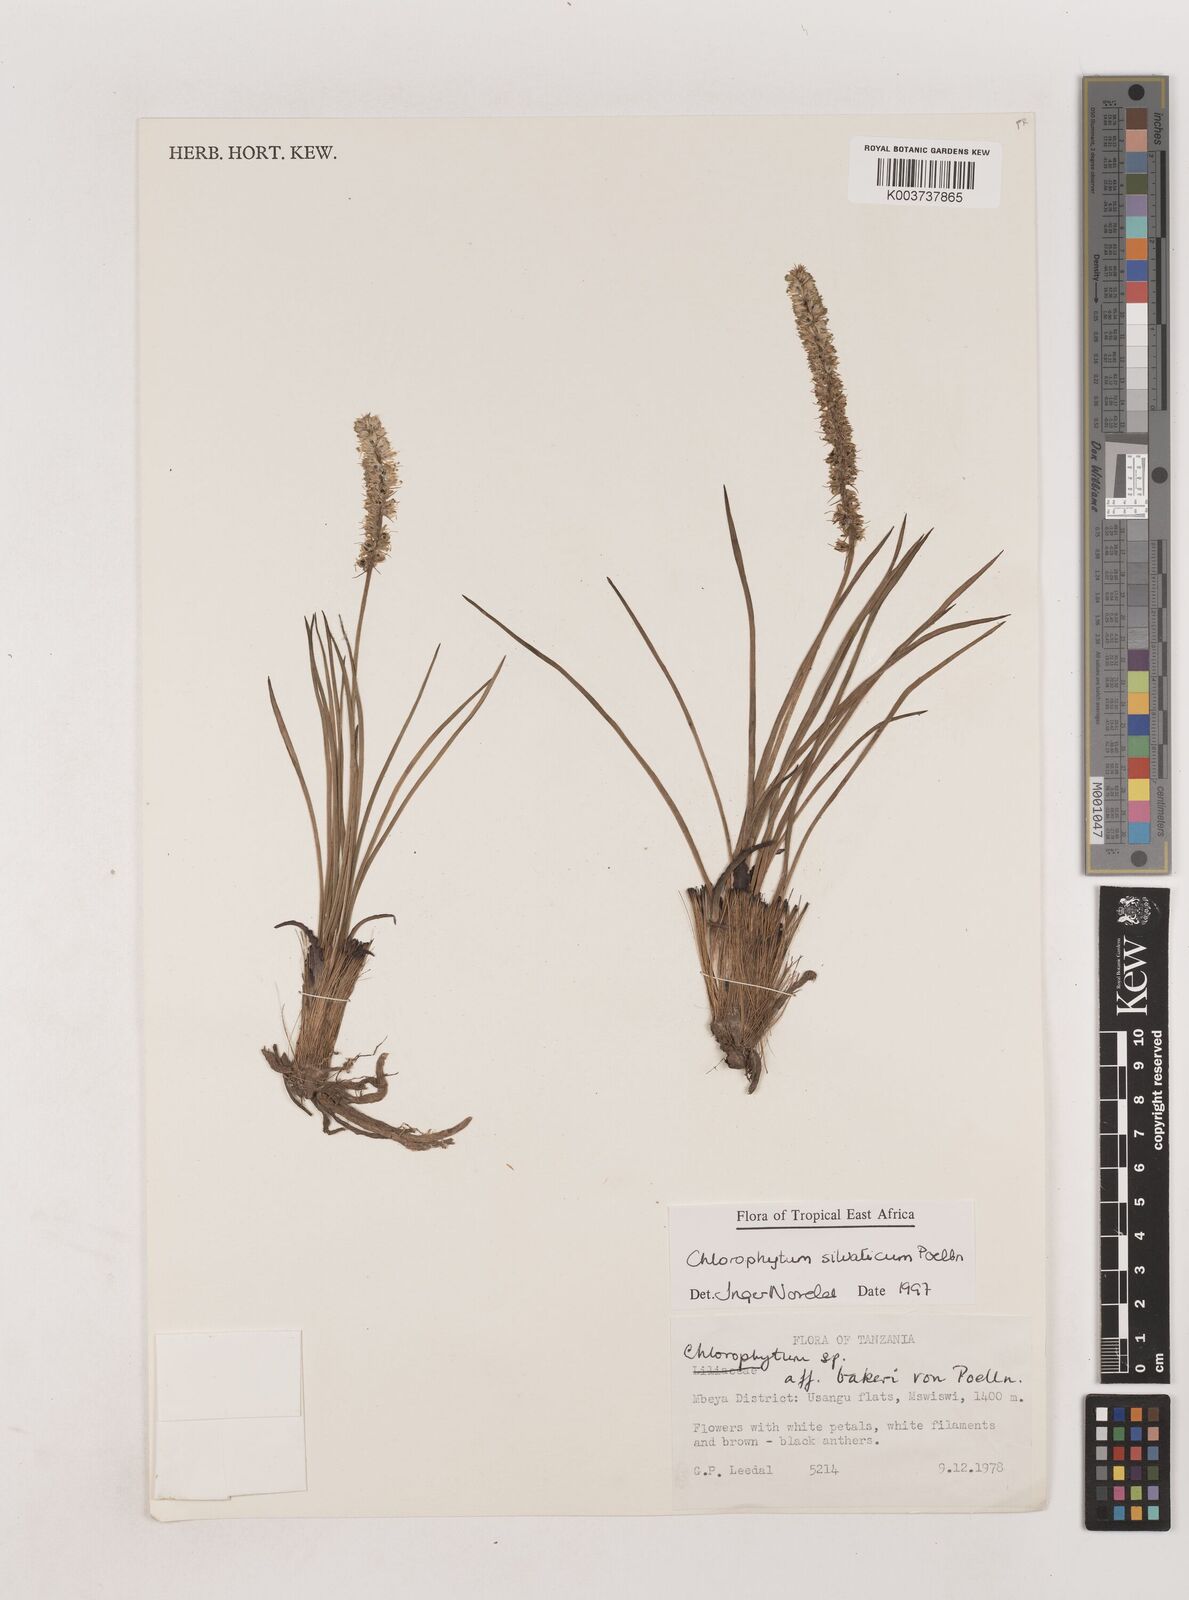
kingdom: Plantae
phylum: Tracheophyta
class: Liliopsida
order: Asparagales
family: Asparagaceae
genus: Chlorophytum
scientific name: Chlorophytum africanum
